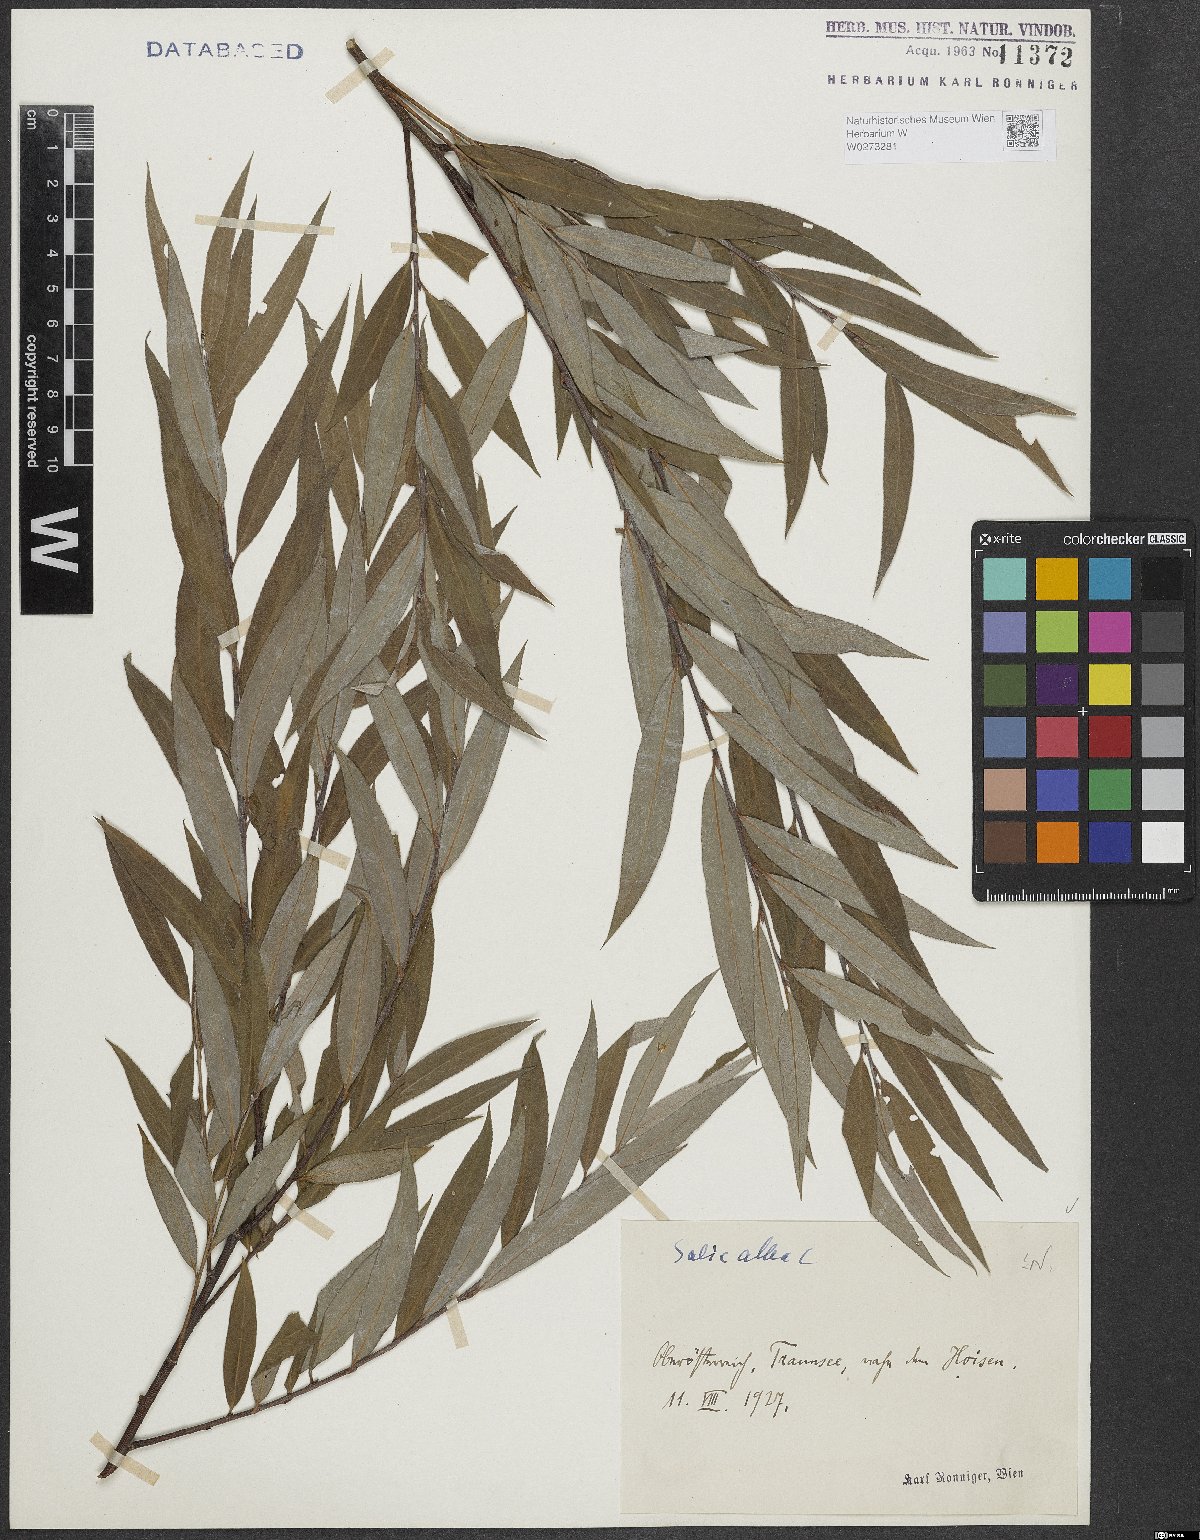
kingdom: Plantae
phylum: Tracheophyta
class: Magnoliopsida
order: Malpighiales
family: Salicaceae
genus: Salix
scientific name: Salix alba
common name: White willow
